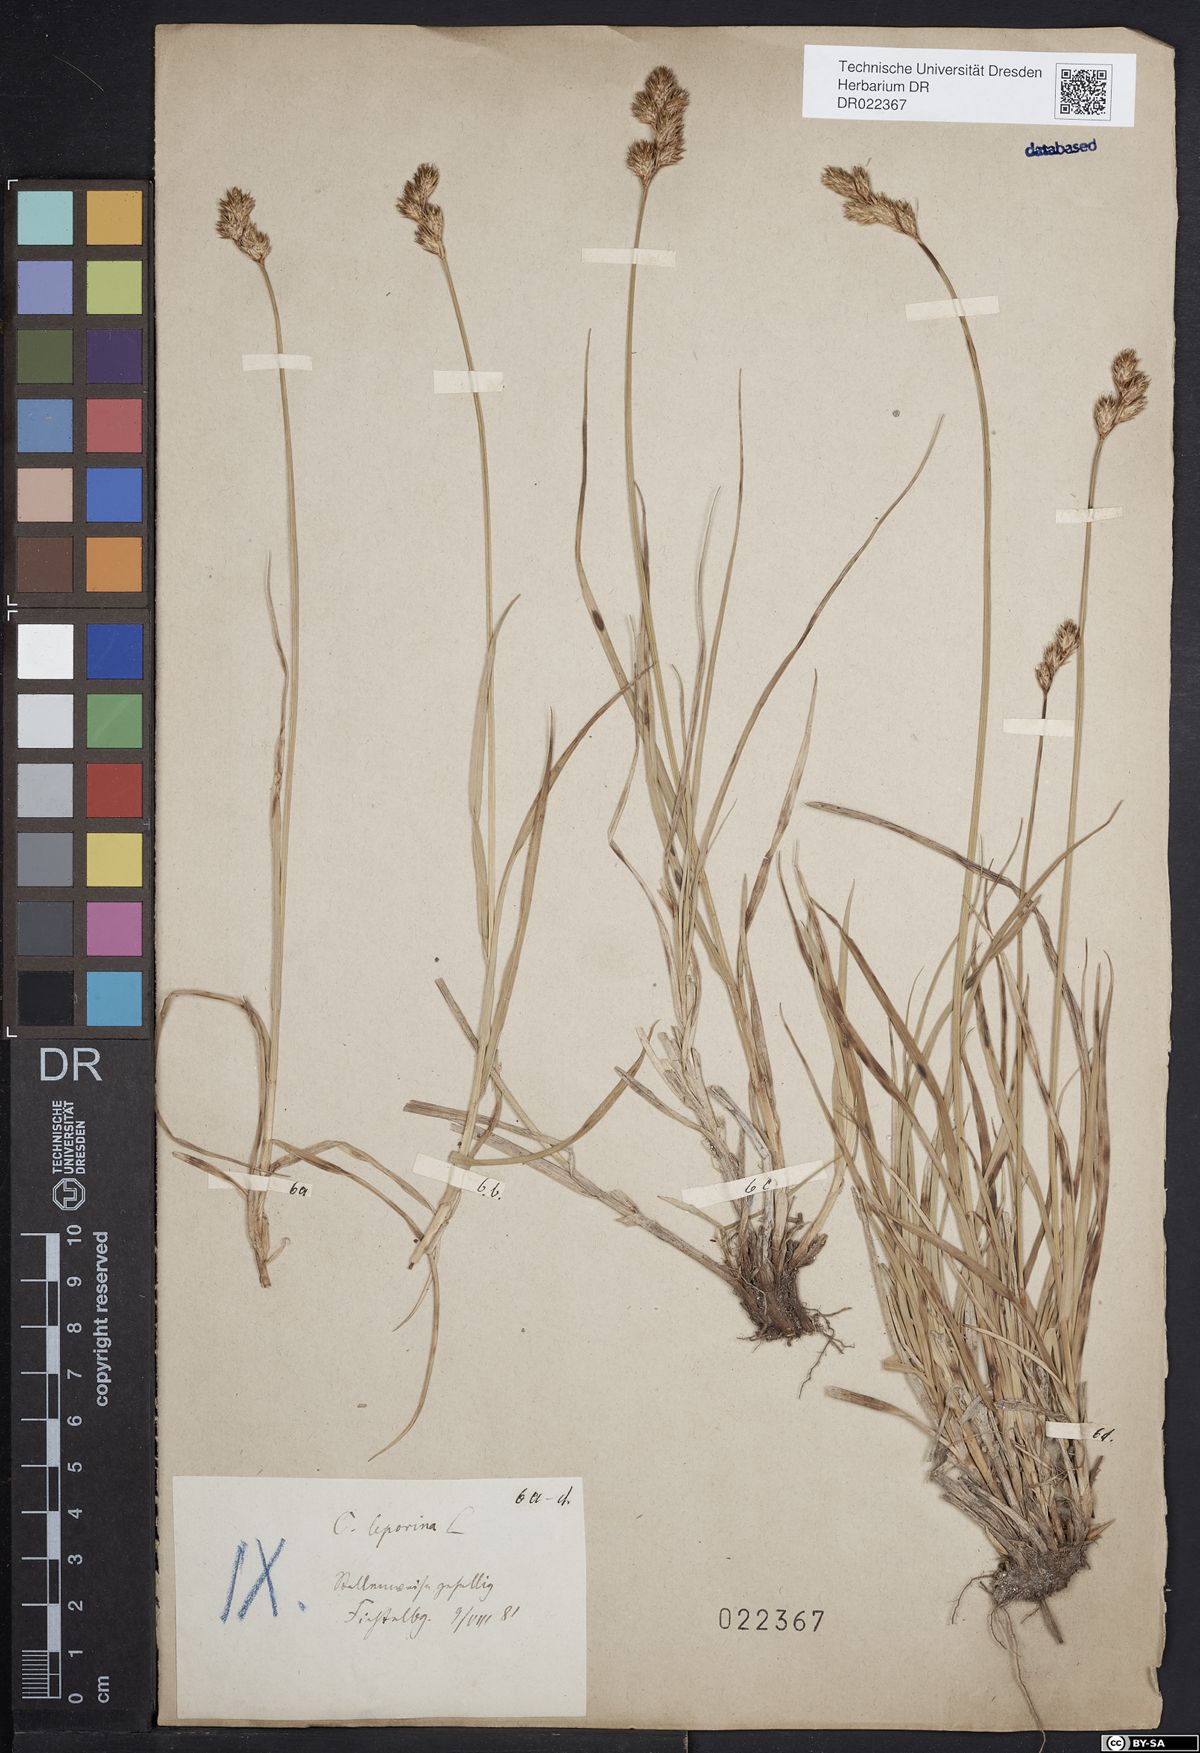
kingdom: Plantae
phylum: Tracheophyta
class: Liliopsida
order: Poales
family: Cyperaceae
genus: Carex
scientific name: Carex leporina
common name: Oval sedge
